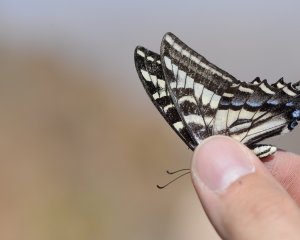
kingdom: Animalia
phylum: Arthropoda
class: Insecta
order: Lepidoptera
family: Papilionidae
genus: Pterourus
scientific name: Pterourus eurymedon
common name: Pale Swallowtail
